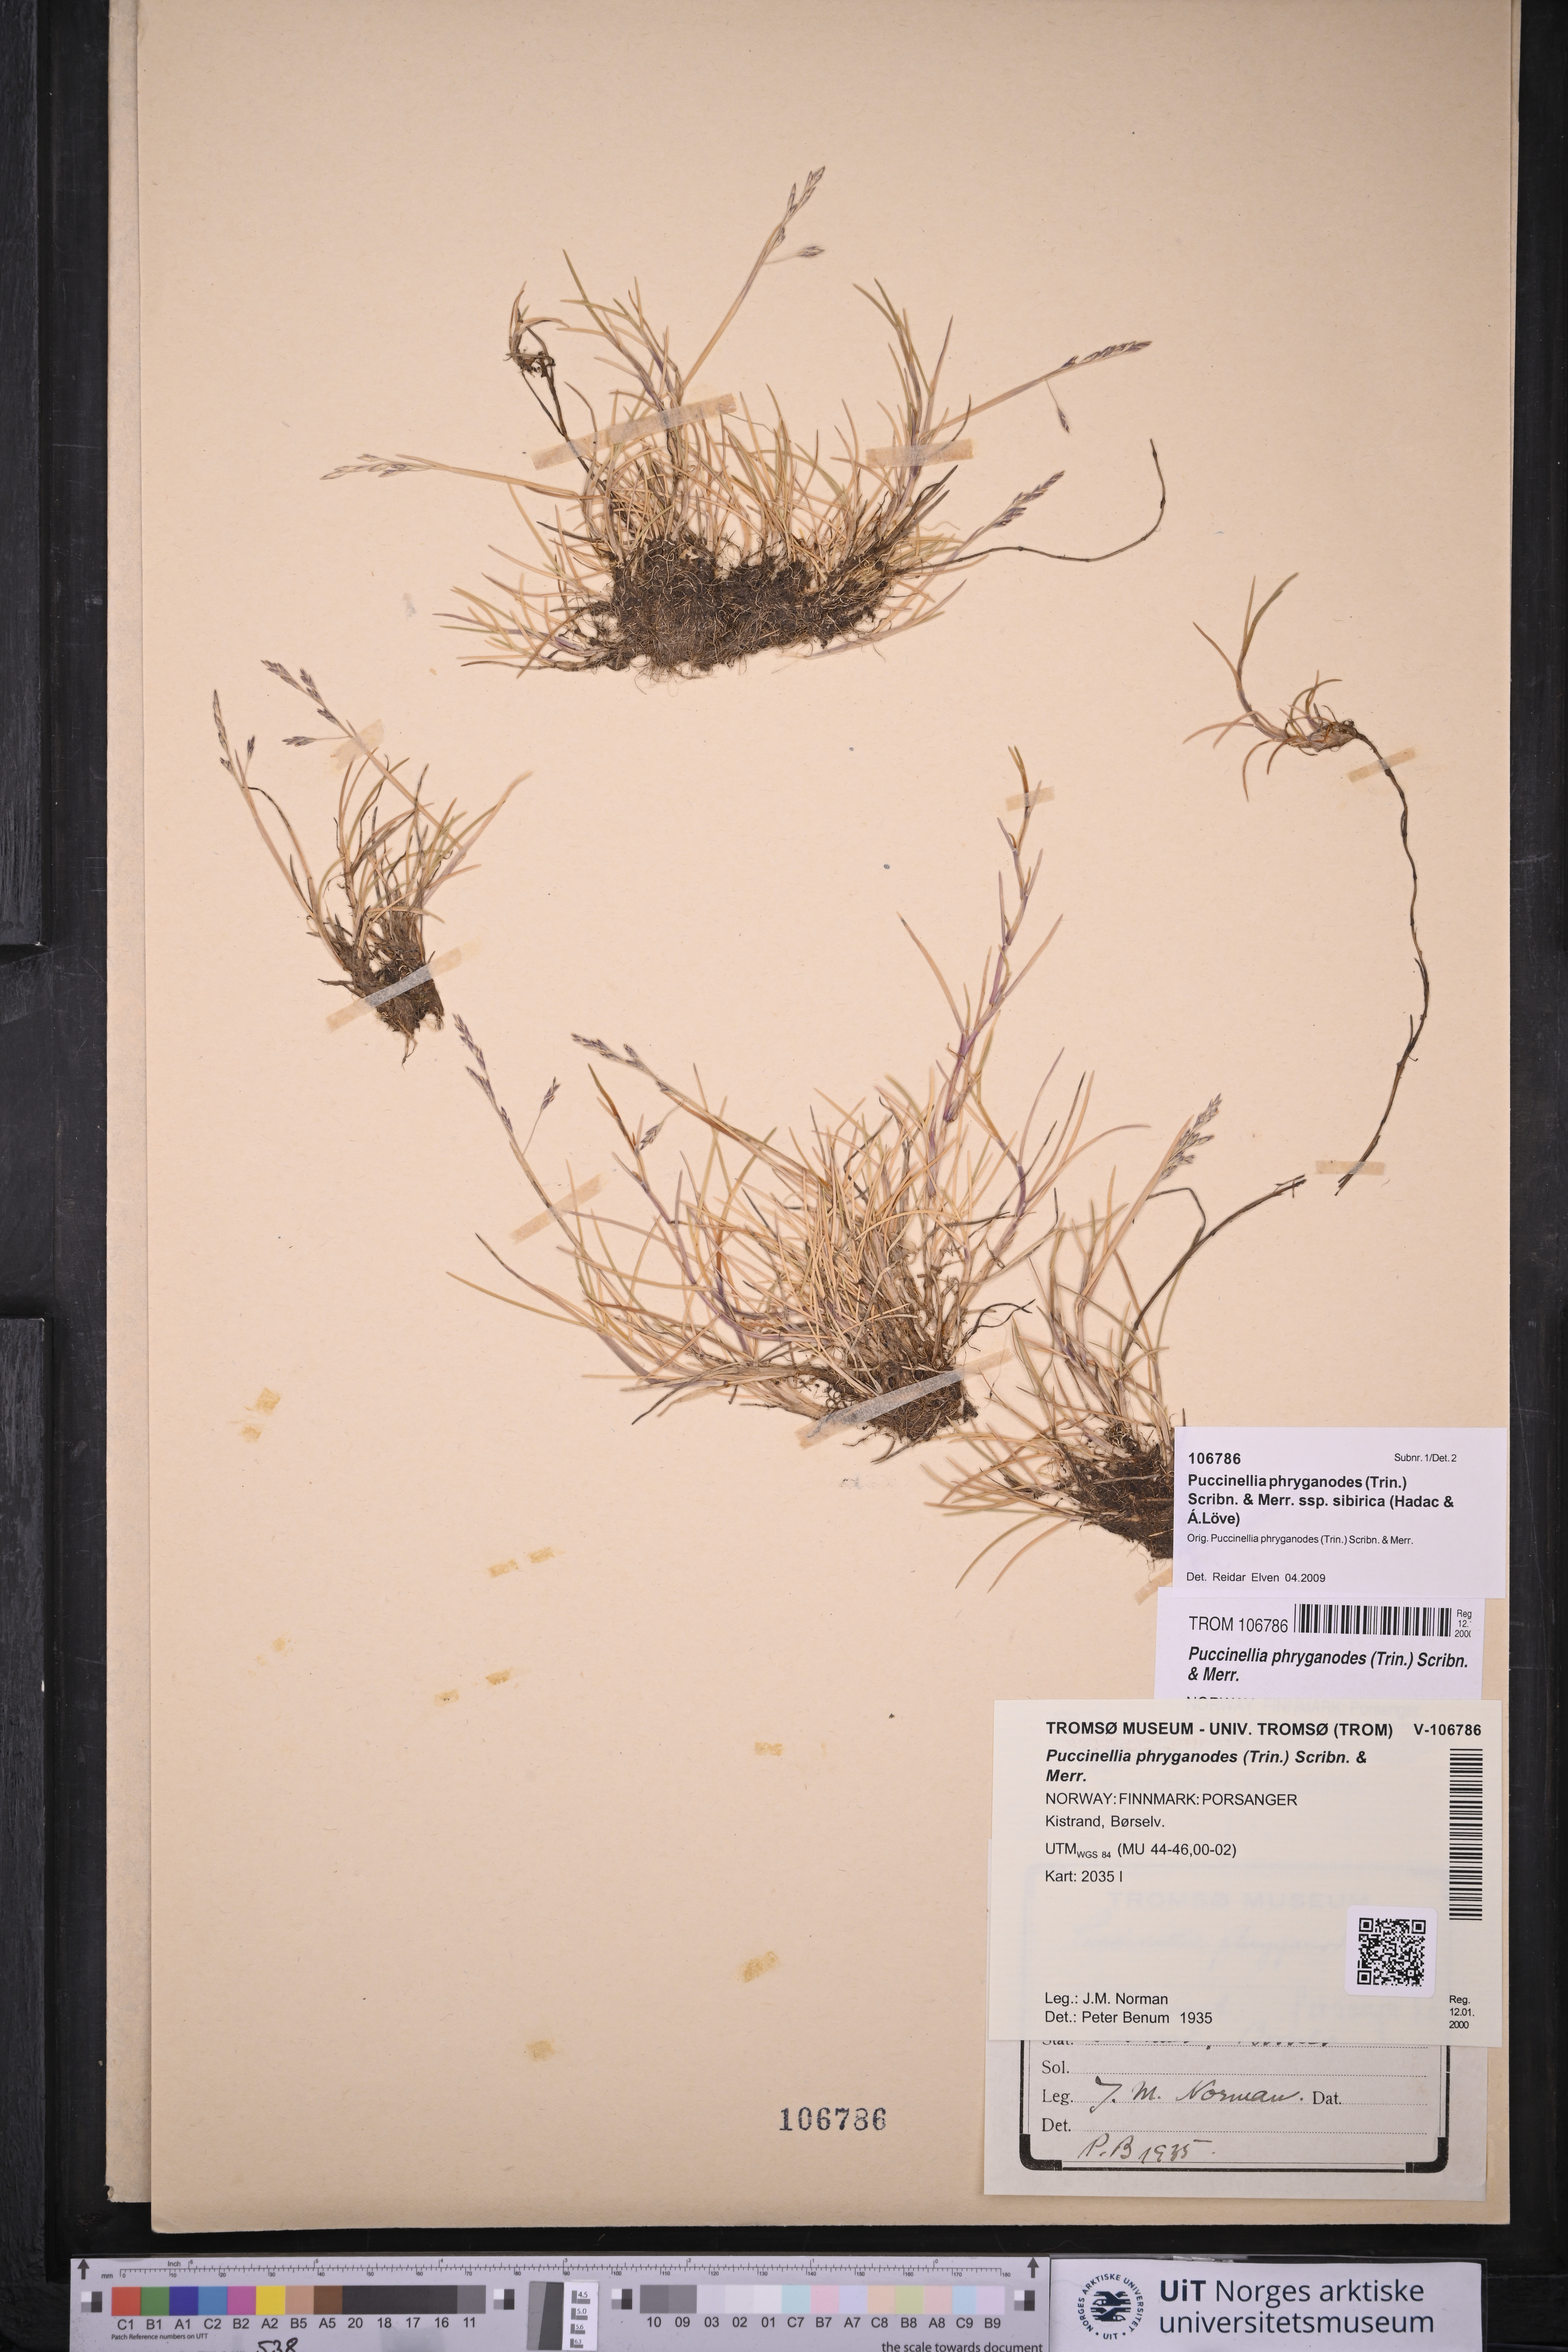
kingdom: Plantae
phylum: Tracheophyta
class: Liliopsida
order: Poales
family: Poaceae
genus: Puccinellia
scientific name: Puccinellia phryganodes
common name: Creeping alkaligrass
